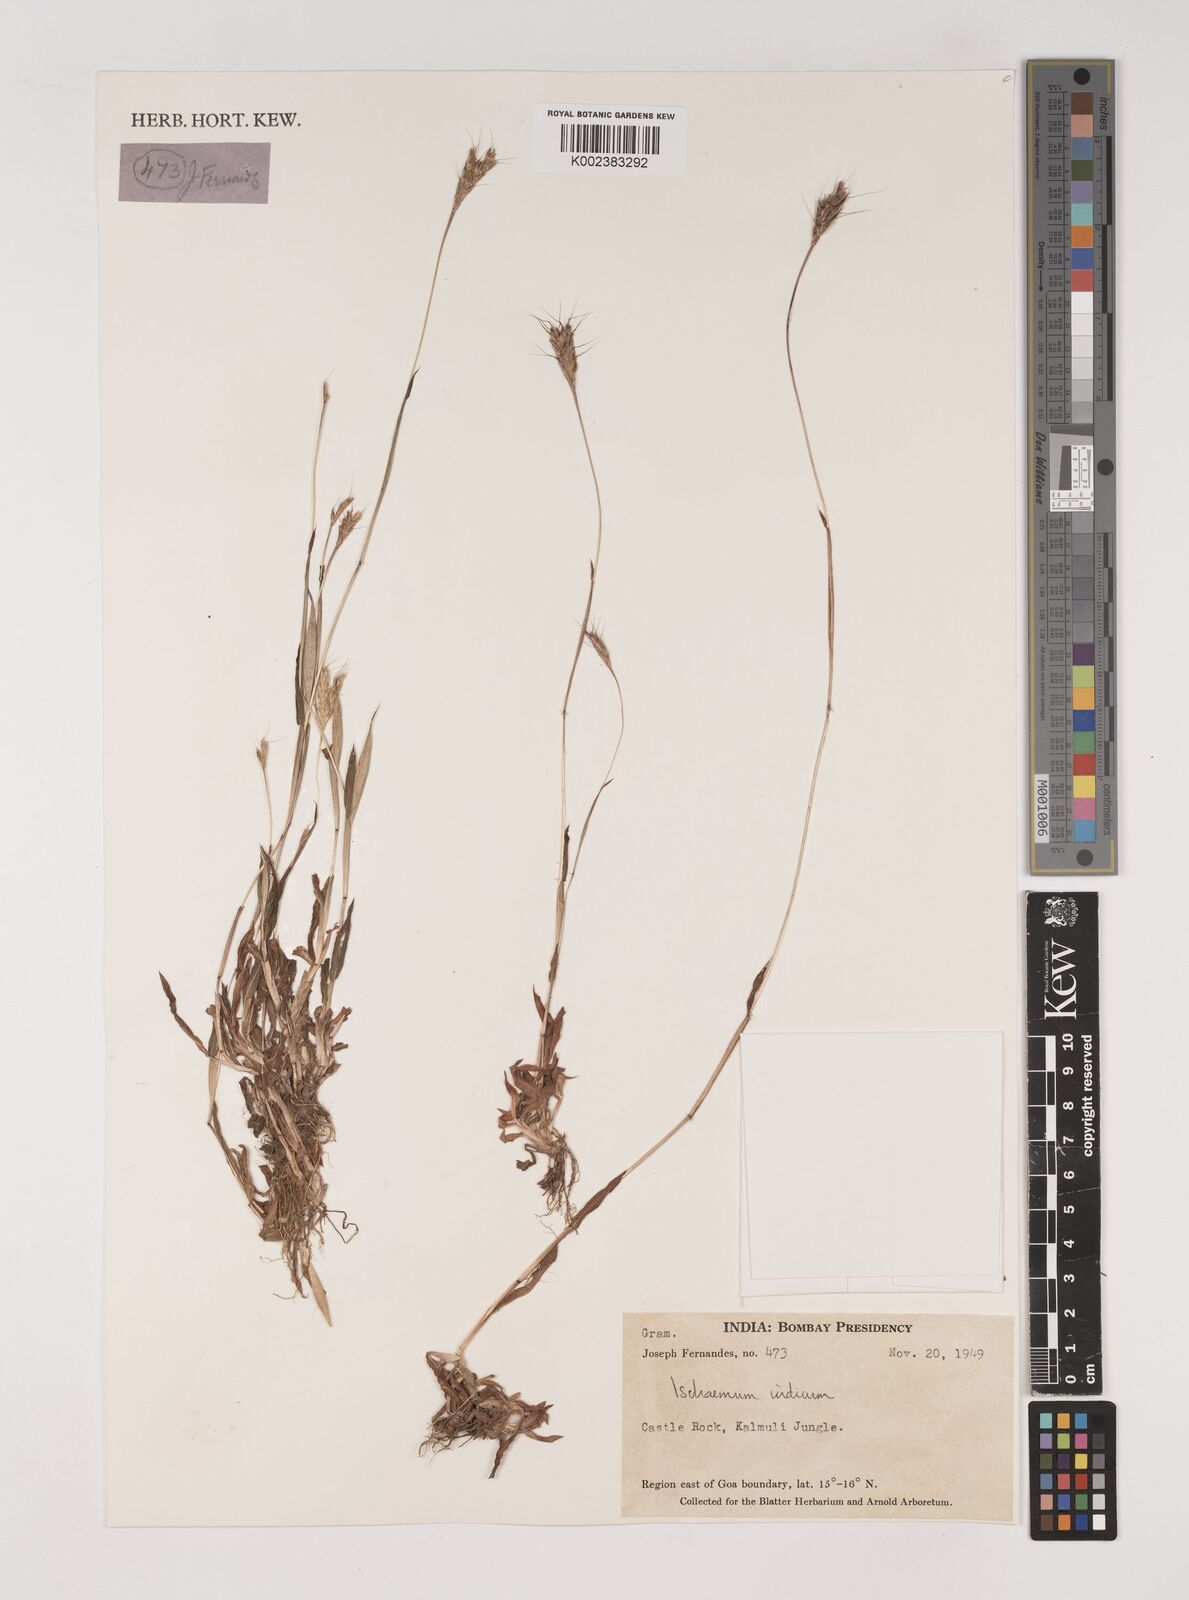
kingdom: Plantae
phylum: Tracheophyta
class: Liliopsida
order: Poales
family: Poaceae
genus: Polytrias
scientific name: Polytrias indica
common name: Indian murainagrass
